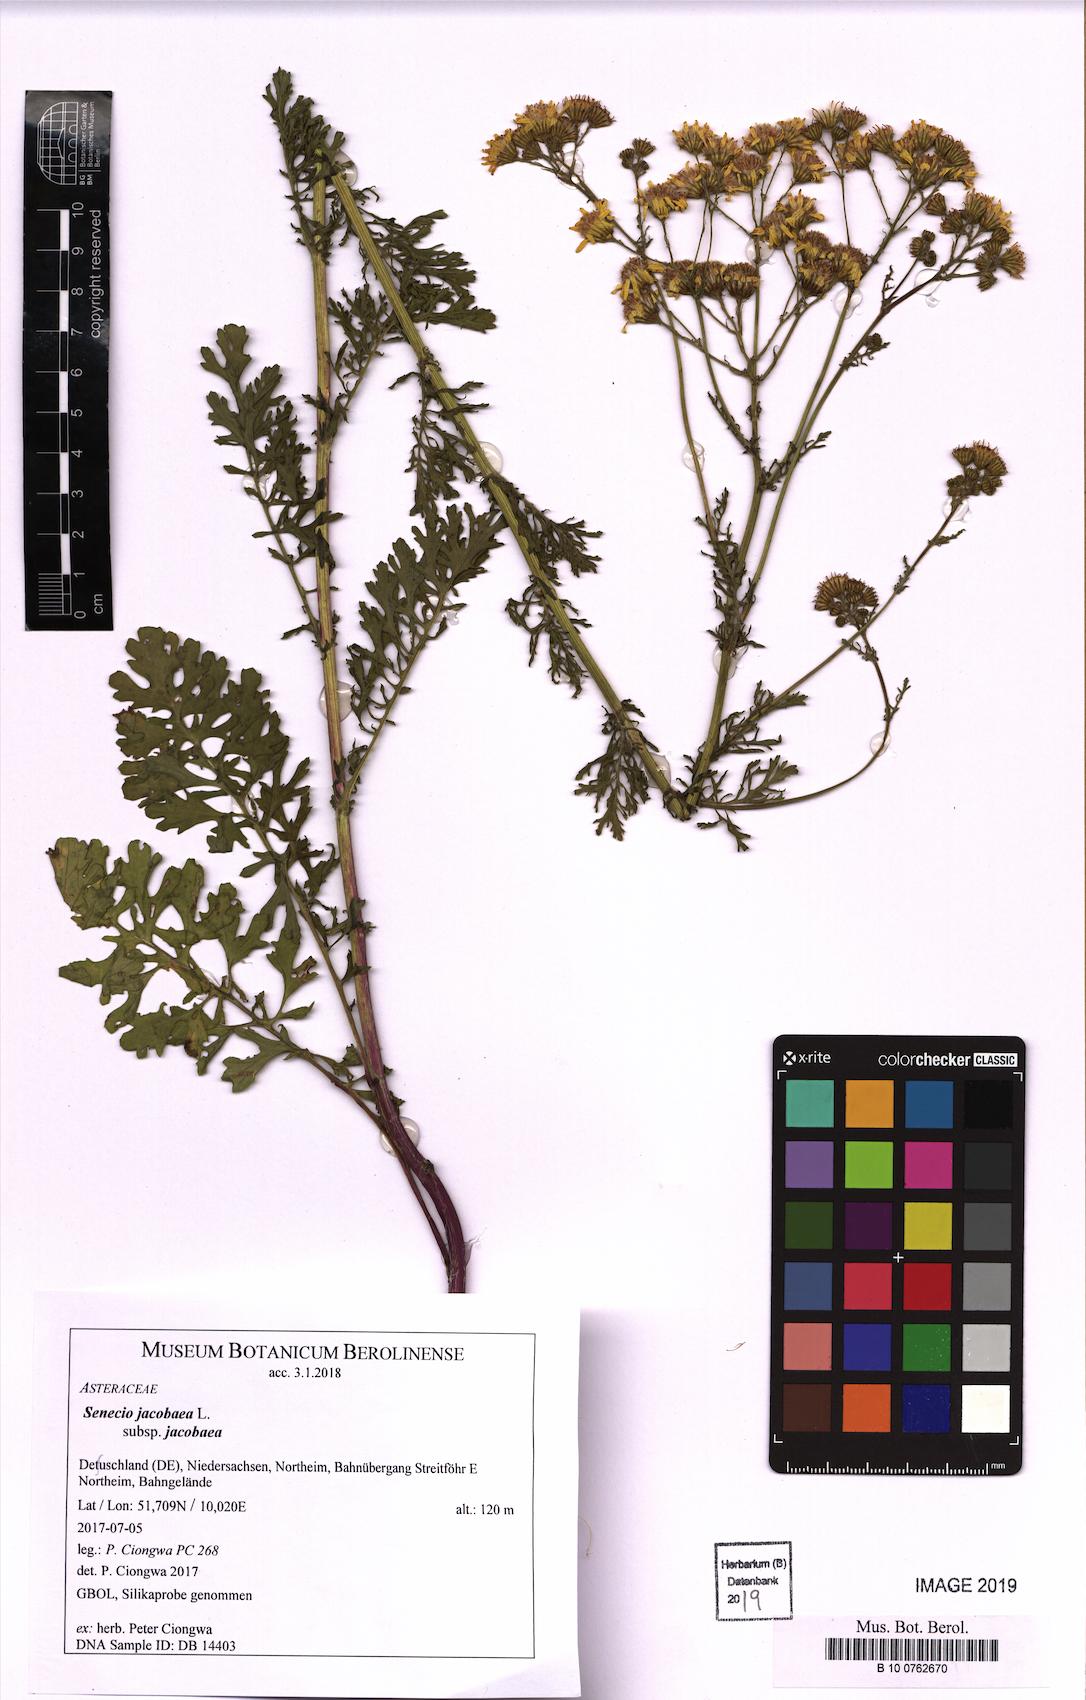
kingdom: Plantae
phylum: Tracheophyta
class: Magnoliopsida
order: Asterales
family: Asteraceae
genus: Jacobaea
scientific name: Jacobaea vulgaris
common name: Stinking willie
